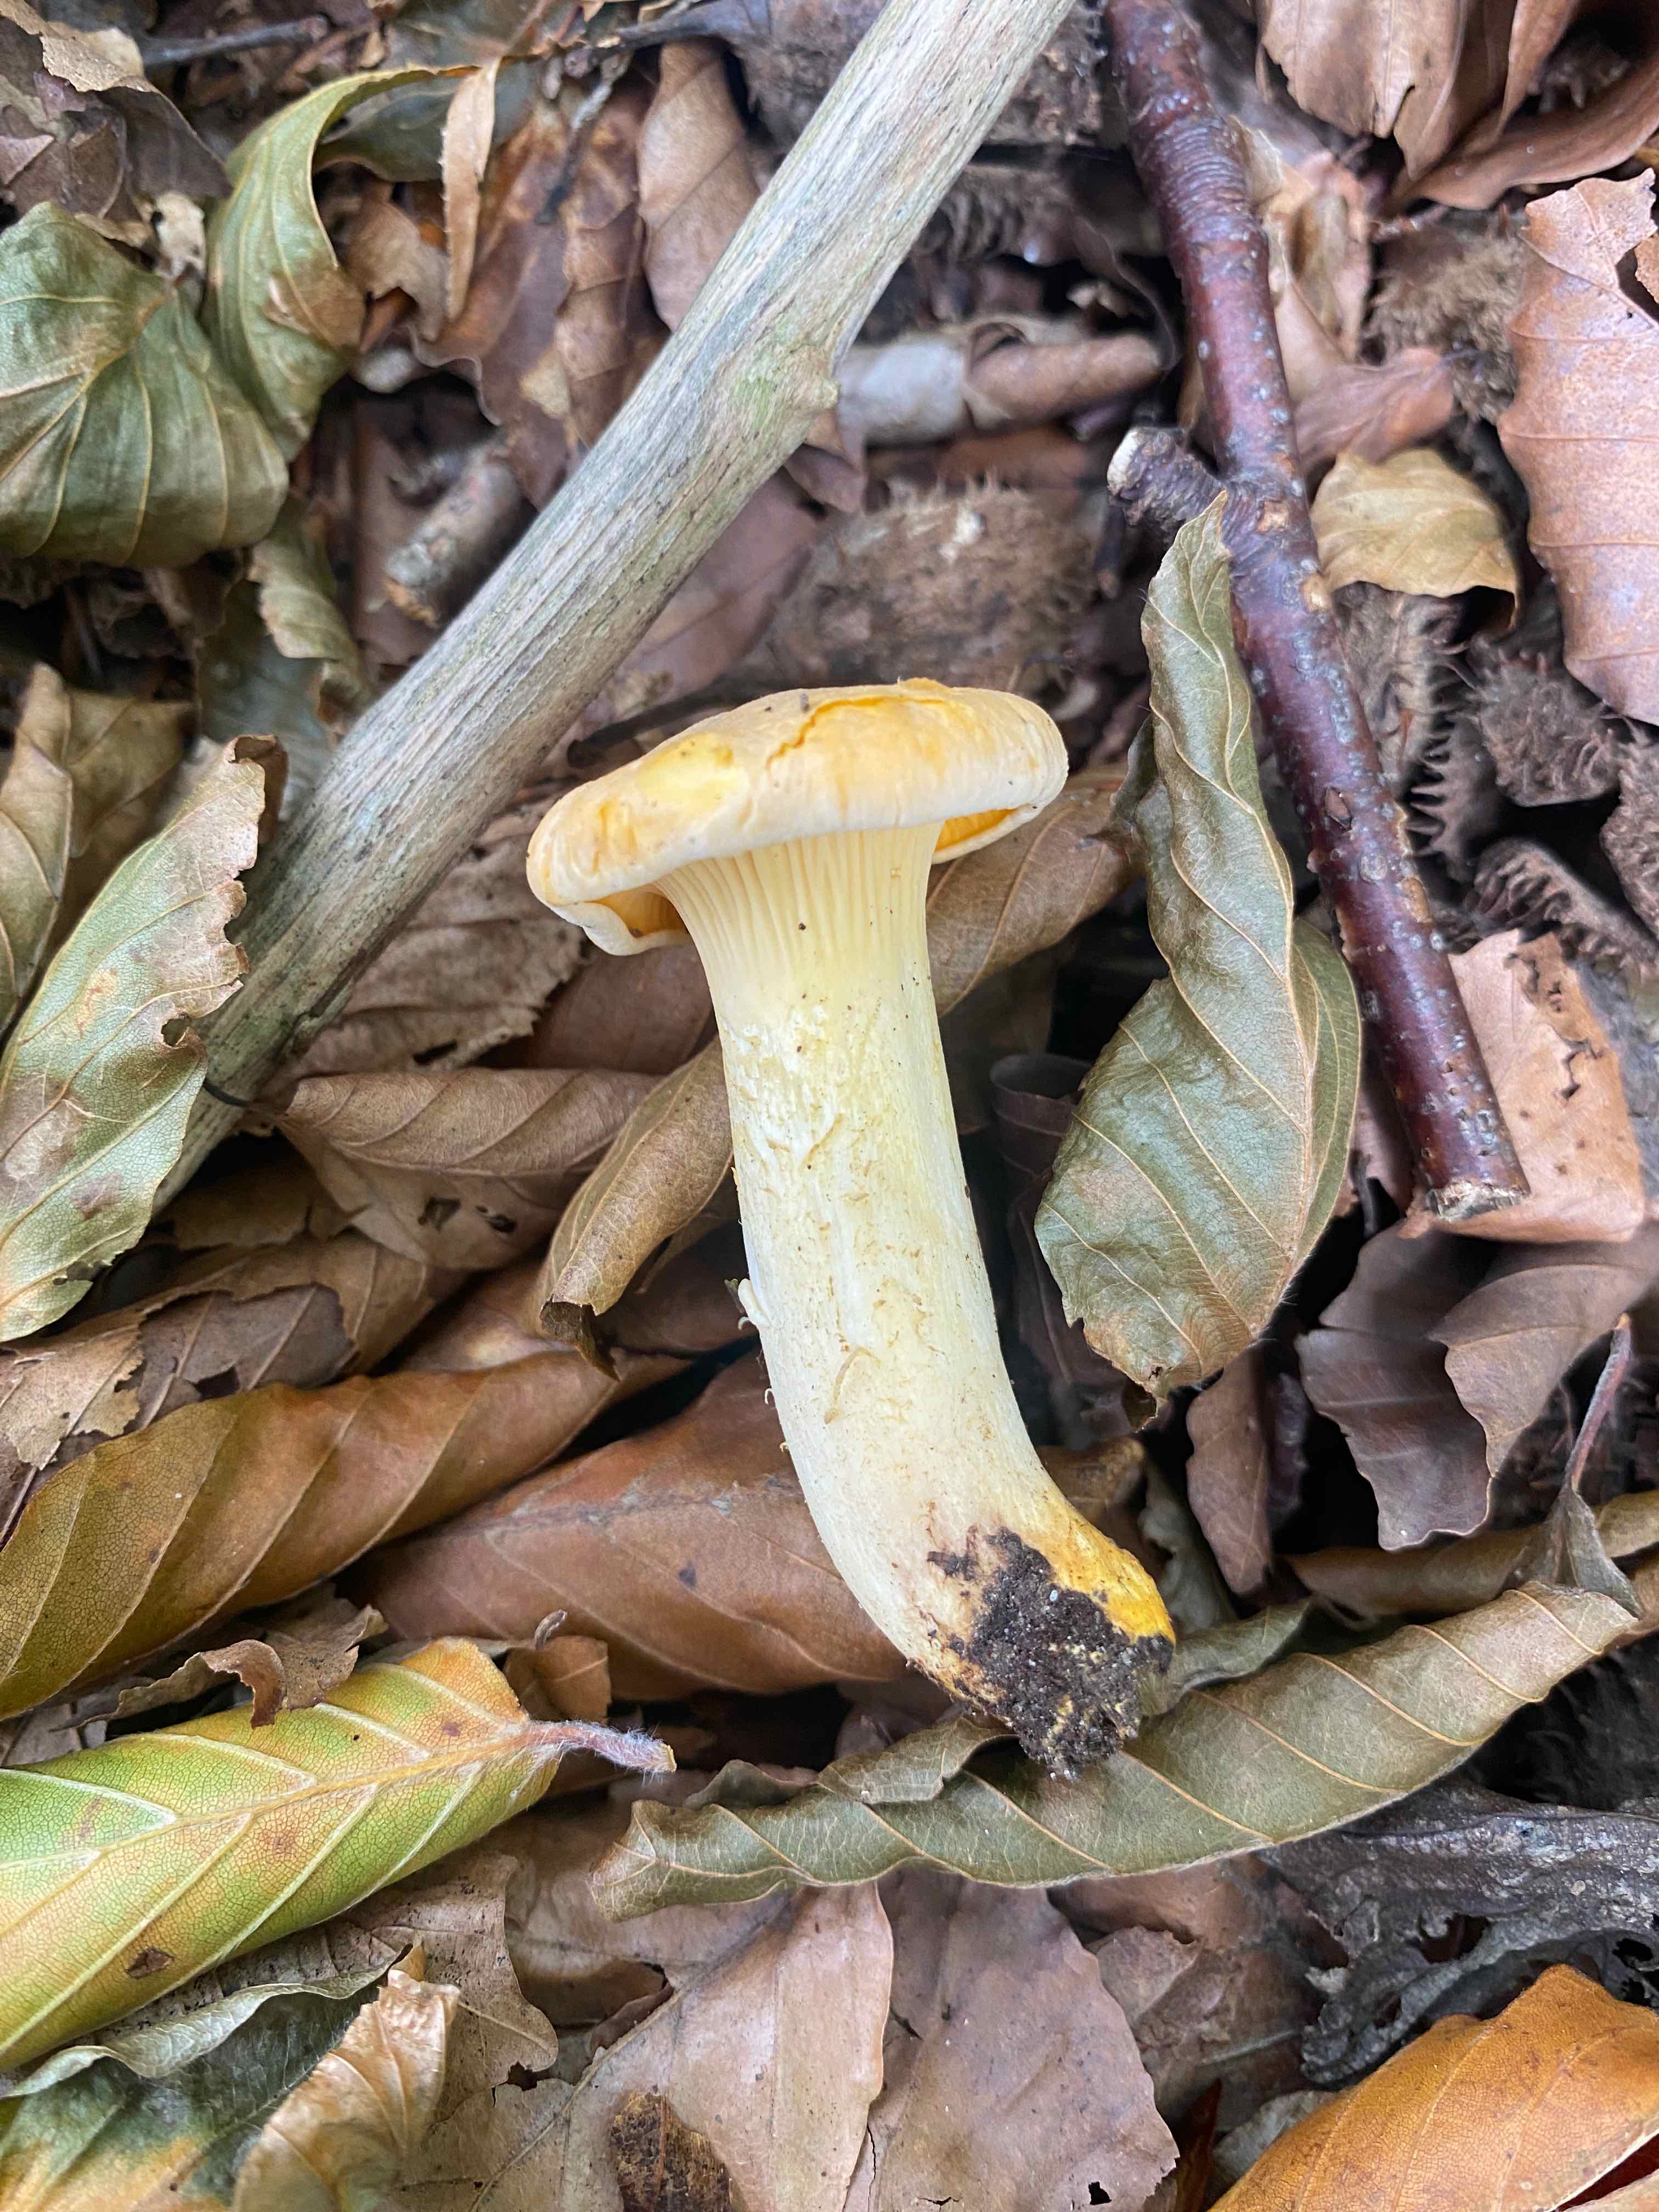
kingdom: Fungi
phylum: Basidiomycota
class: Agaricomycetes
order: Cantharellales
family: Hydnaceae
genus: Cantharellus
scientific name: Cantharellus pallens
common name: bleg kantarel
